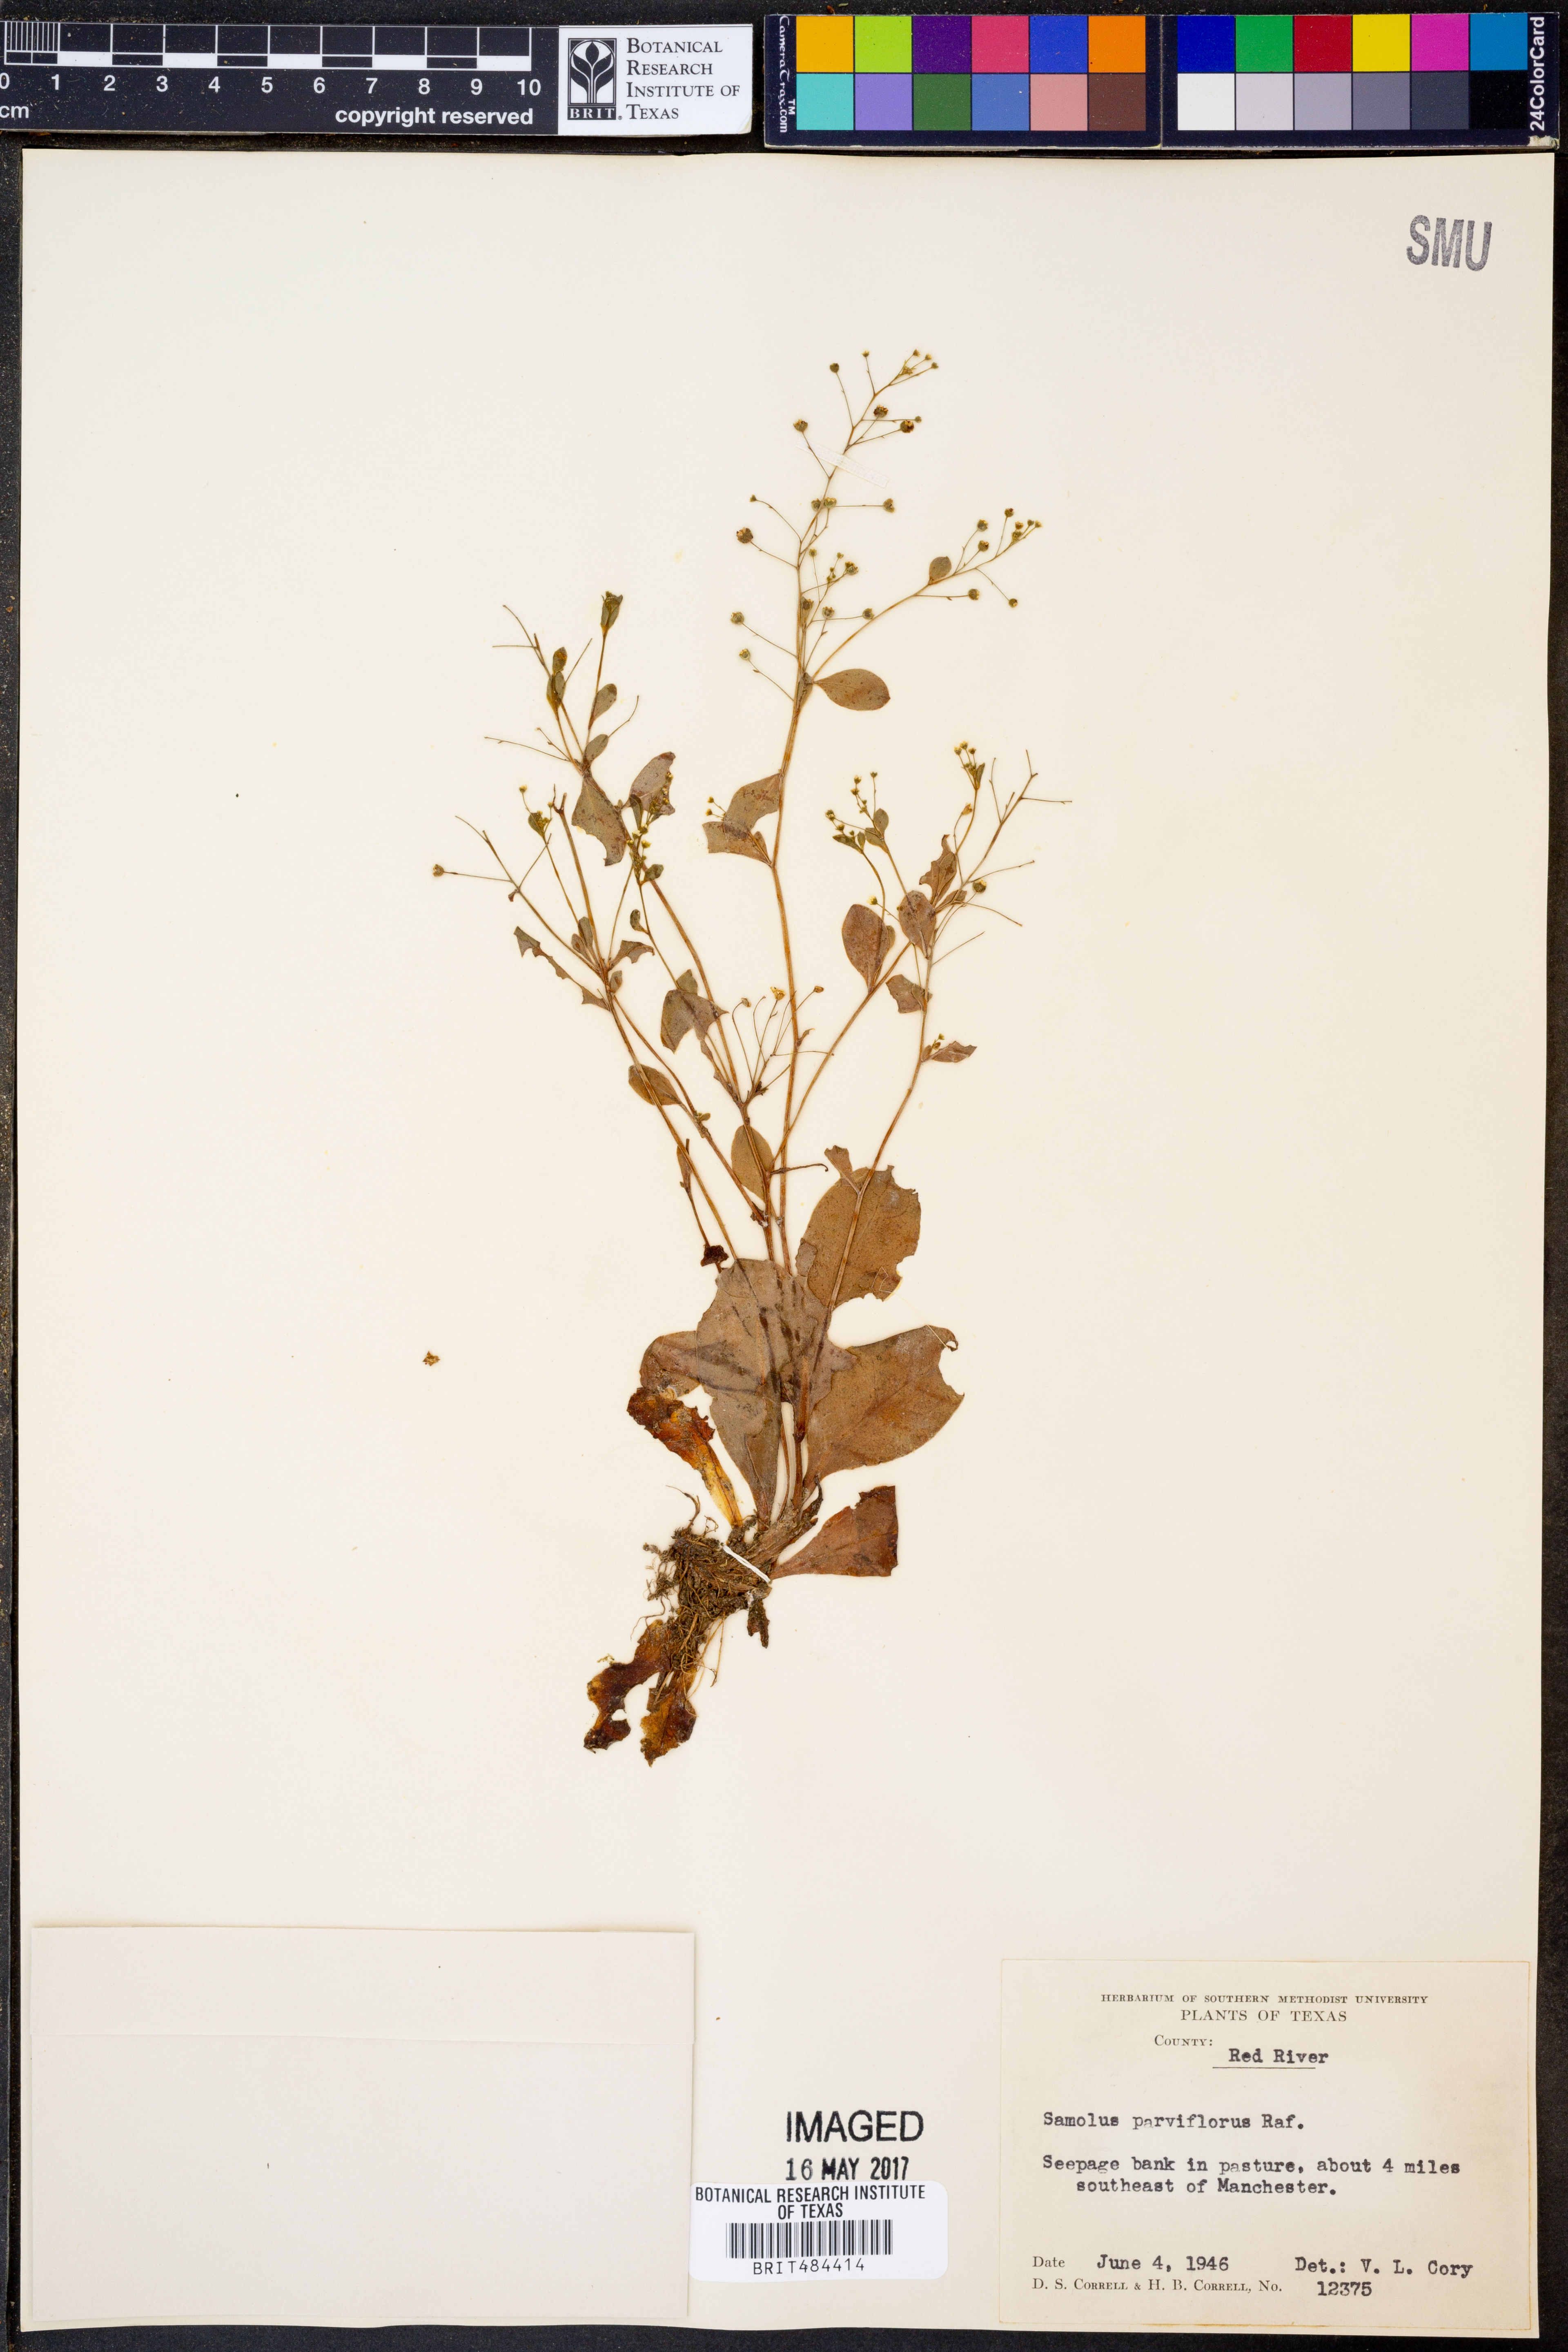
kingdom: Plantae
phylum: Tracheophyta
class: Magnoliopsida
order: Ericales
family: Primulaceae
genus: Samolus
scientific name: Samolus parviflorus
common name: False water pimpernel
